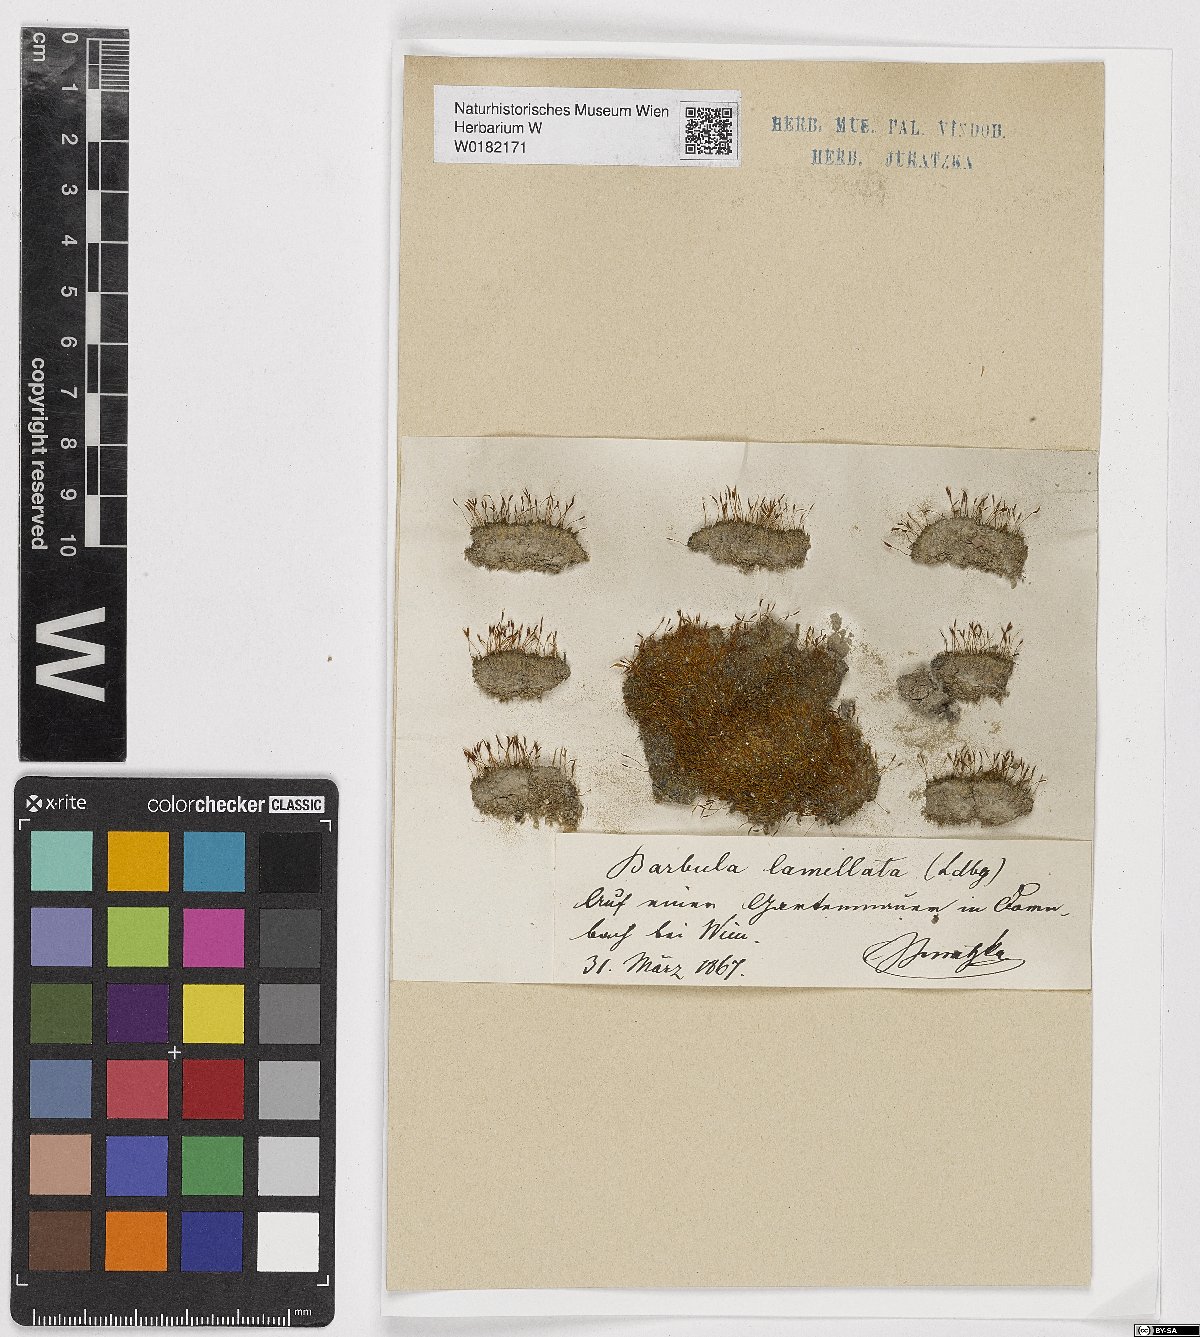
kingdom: Plantae
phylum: Bryophyta
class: Bryopsida
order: Pottiales
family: Pottiaceae
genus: Pterygoneurum
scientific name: Pterygoneurum lamellatum
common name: Spiral chalk-moss
